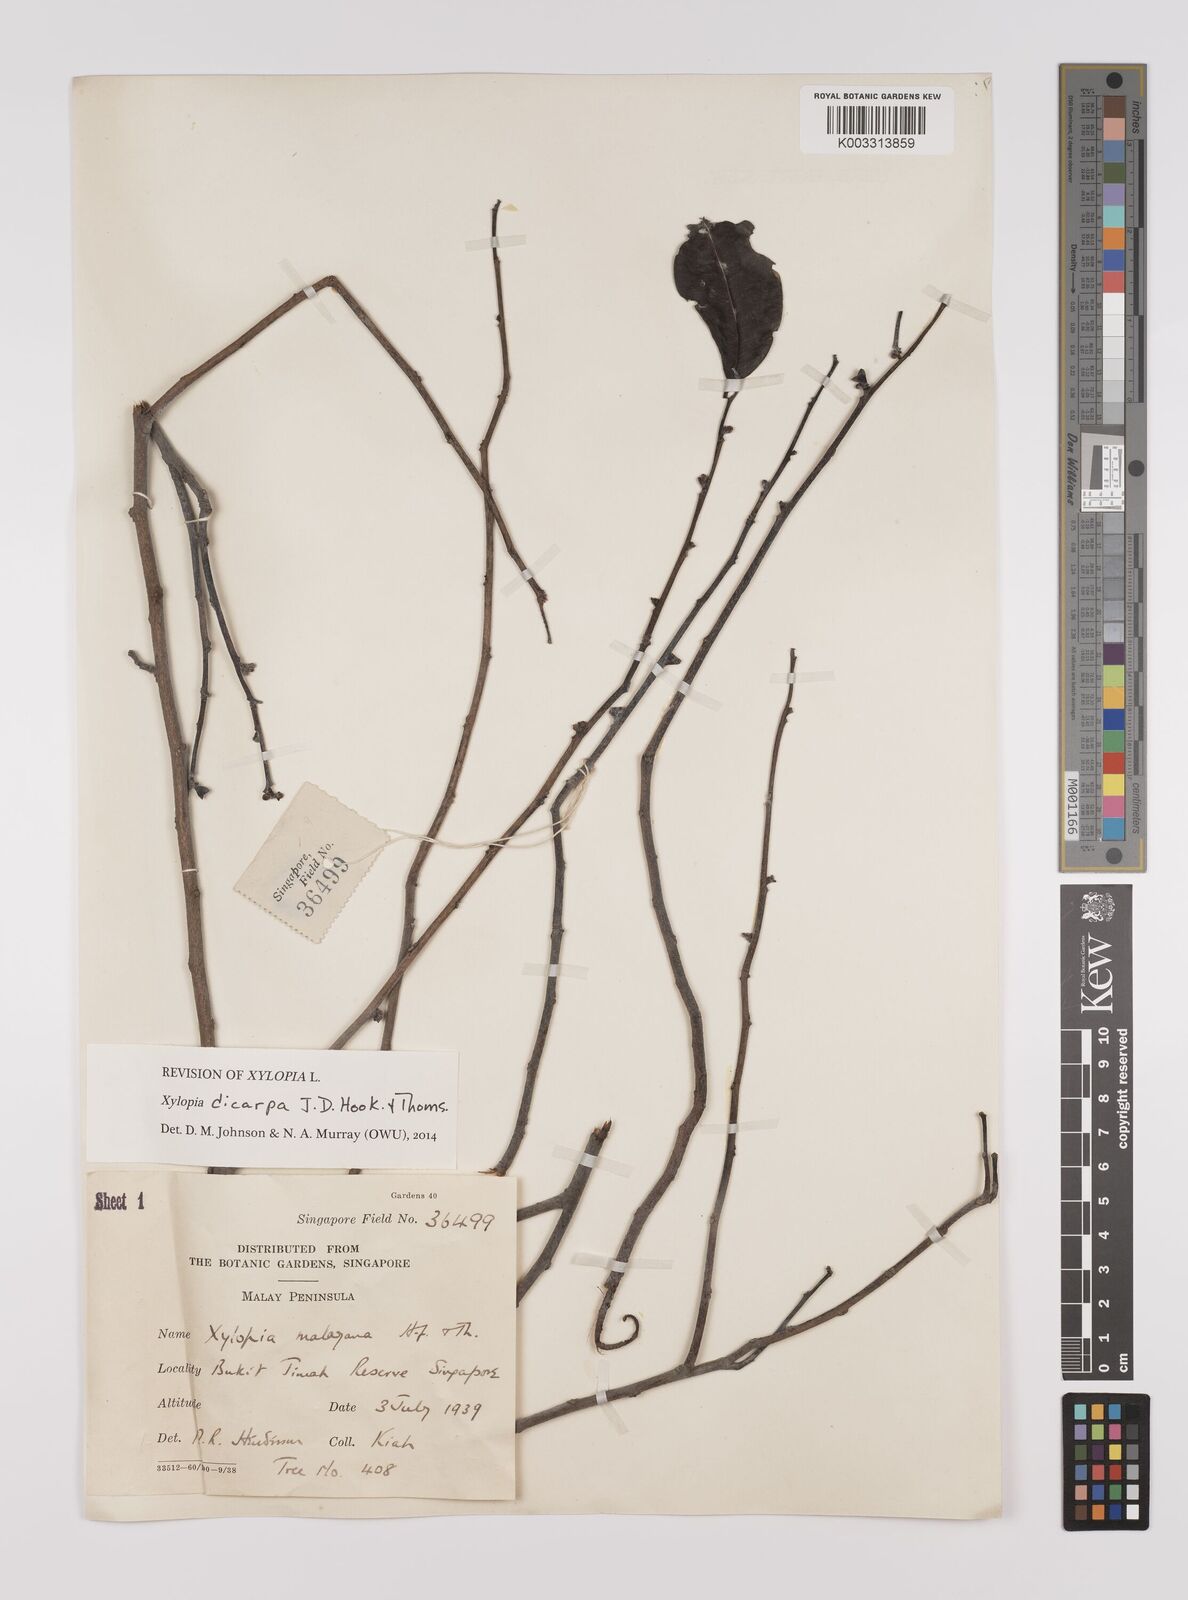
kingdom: Plantae
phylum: Tracheophyta
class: Magnoliopsida
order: Magnoliales
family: Annonaceae
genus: Xylopia
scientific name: Xylopia malayana
